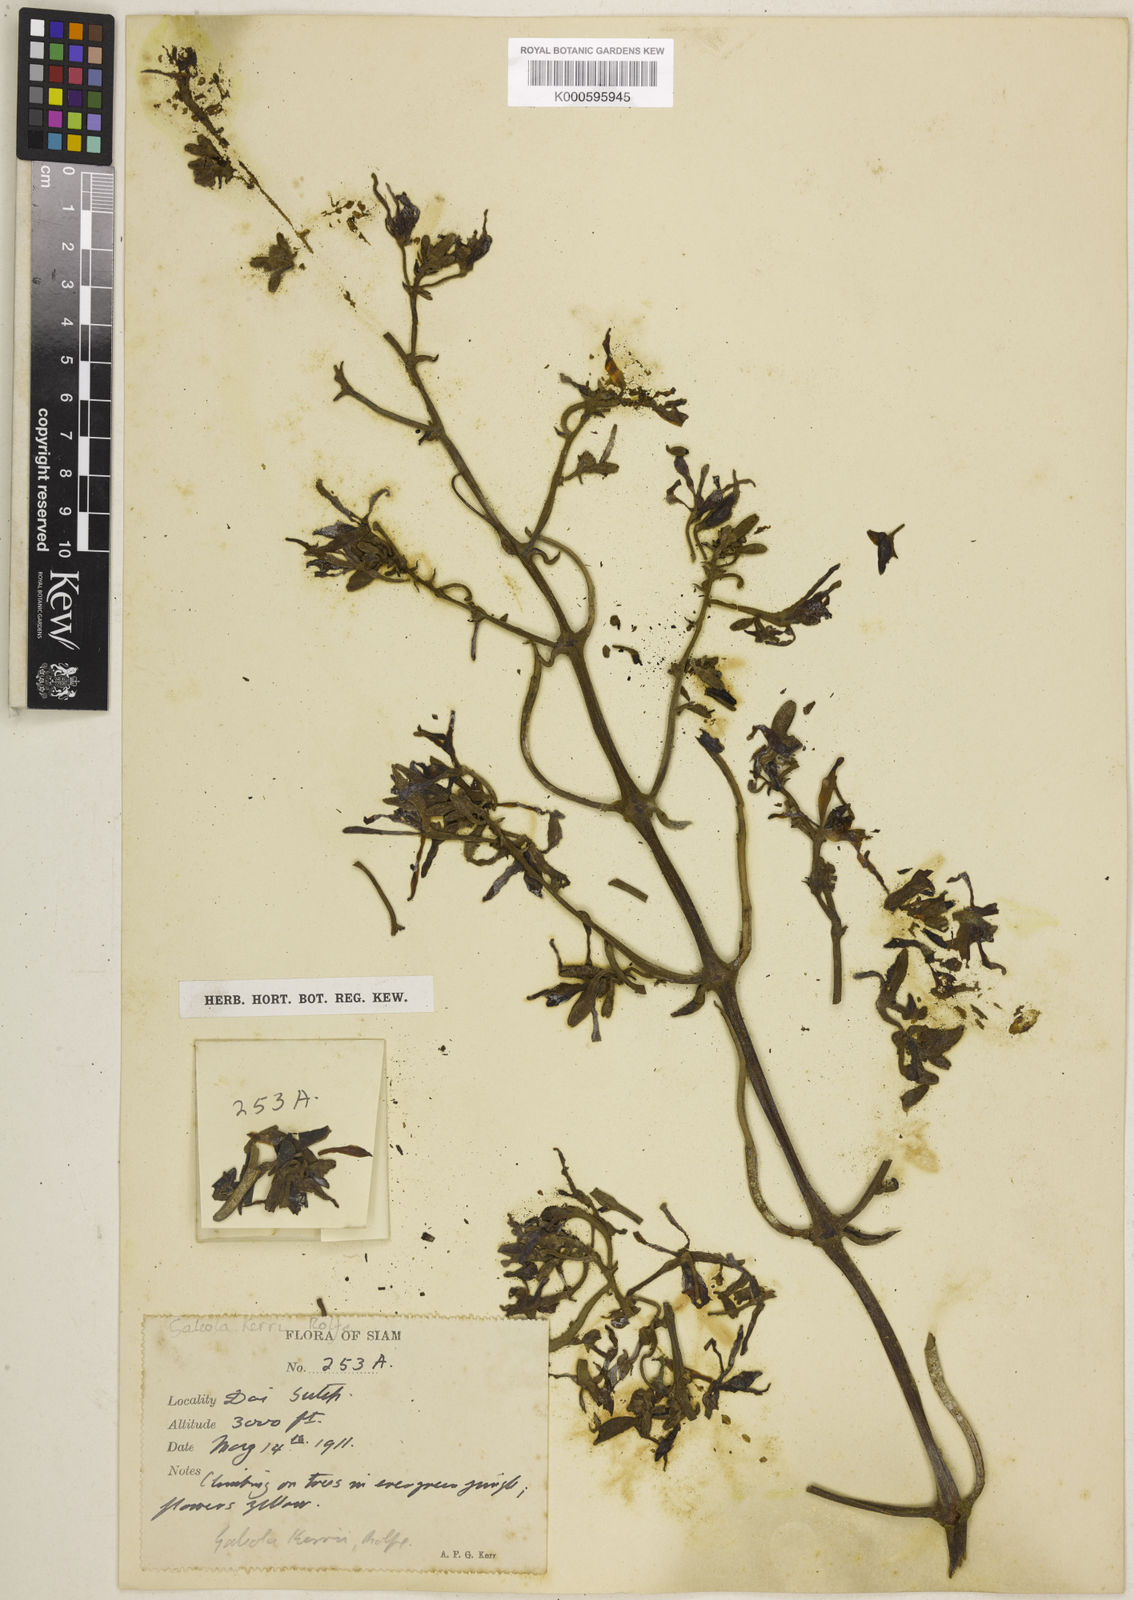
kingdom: Plantae
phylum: Tracheophyta
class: Liliopsida
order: Asparagales
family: Orchidaceae
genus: Galeola
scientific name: Galeola cathcartii
